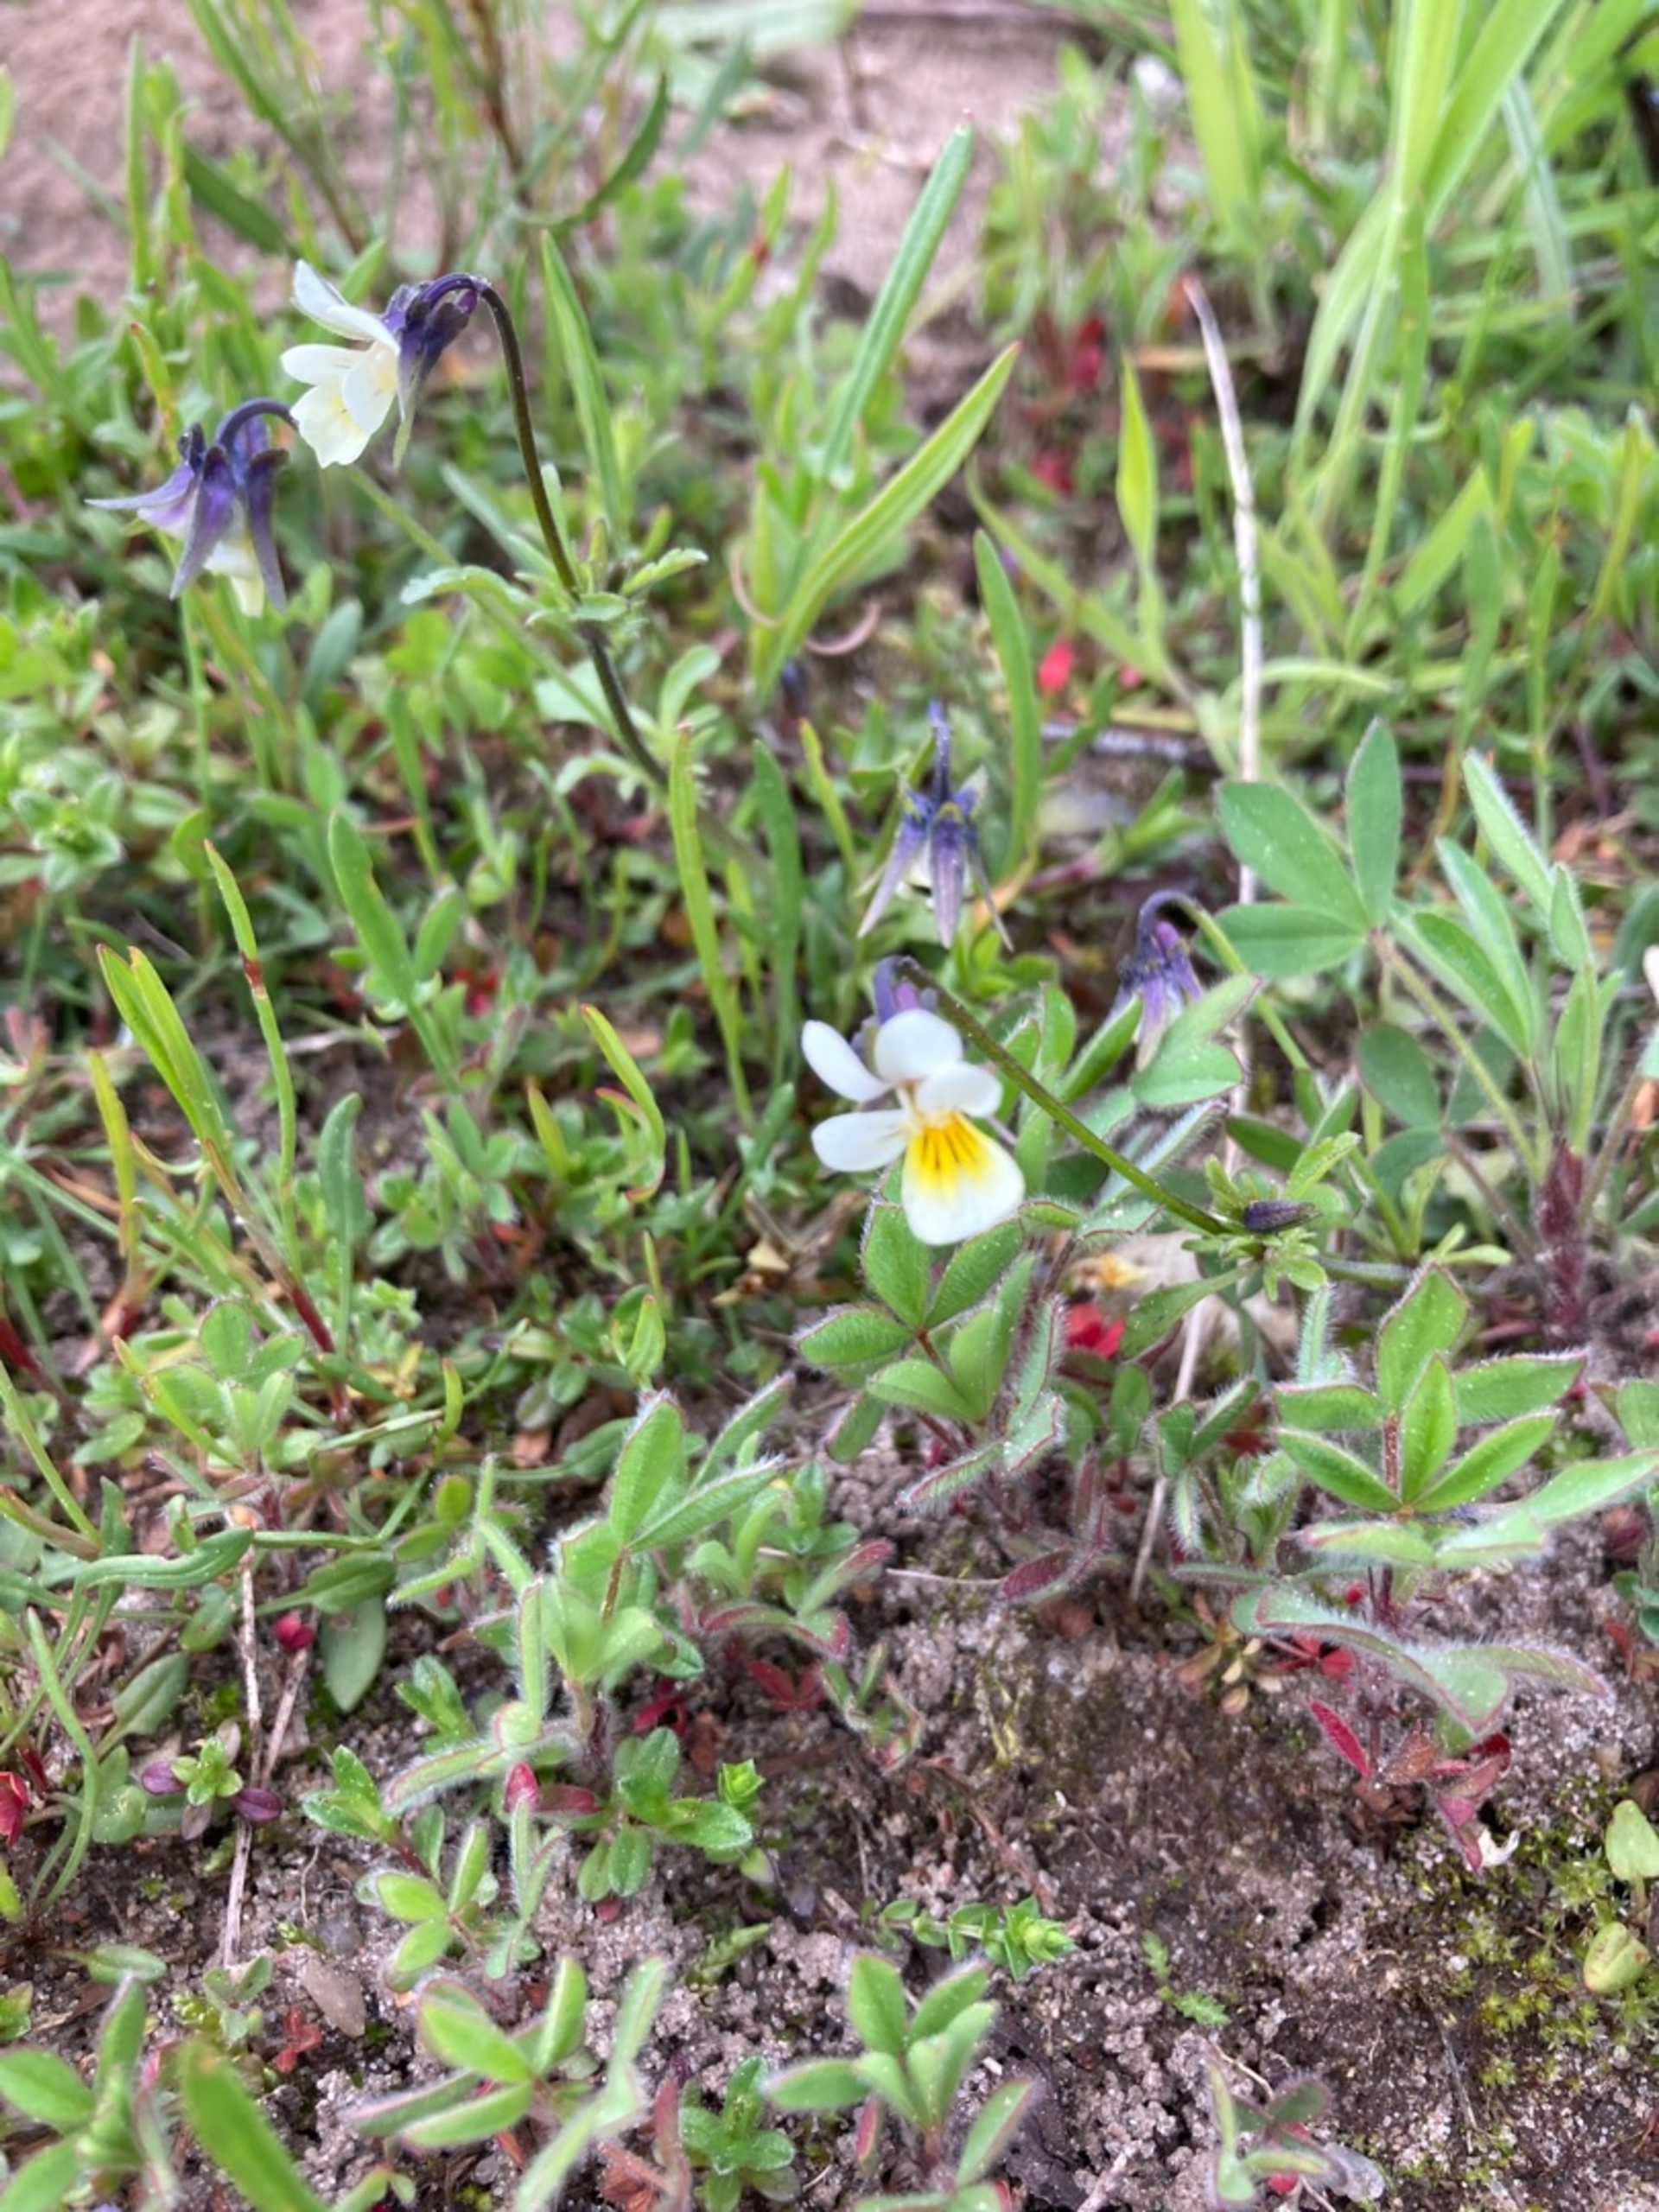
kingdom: Plantae
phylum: Tracheophyta
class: Magnoliopsida
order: Malpighiales
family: Violaceae
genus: Viola
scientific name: Viola arvensis
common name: Ager-stedmoderblomst
